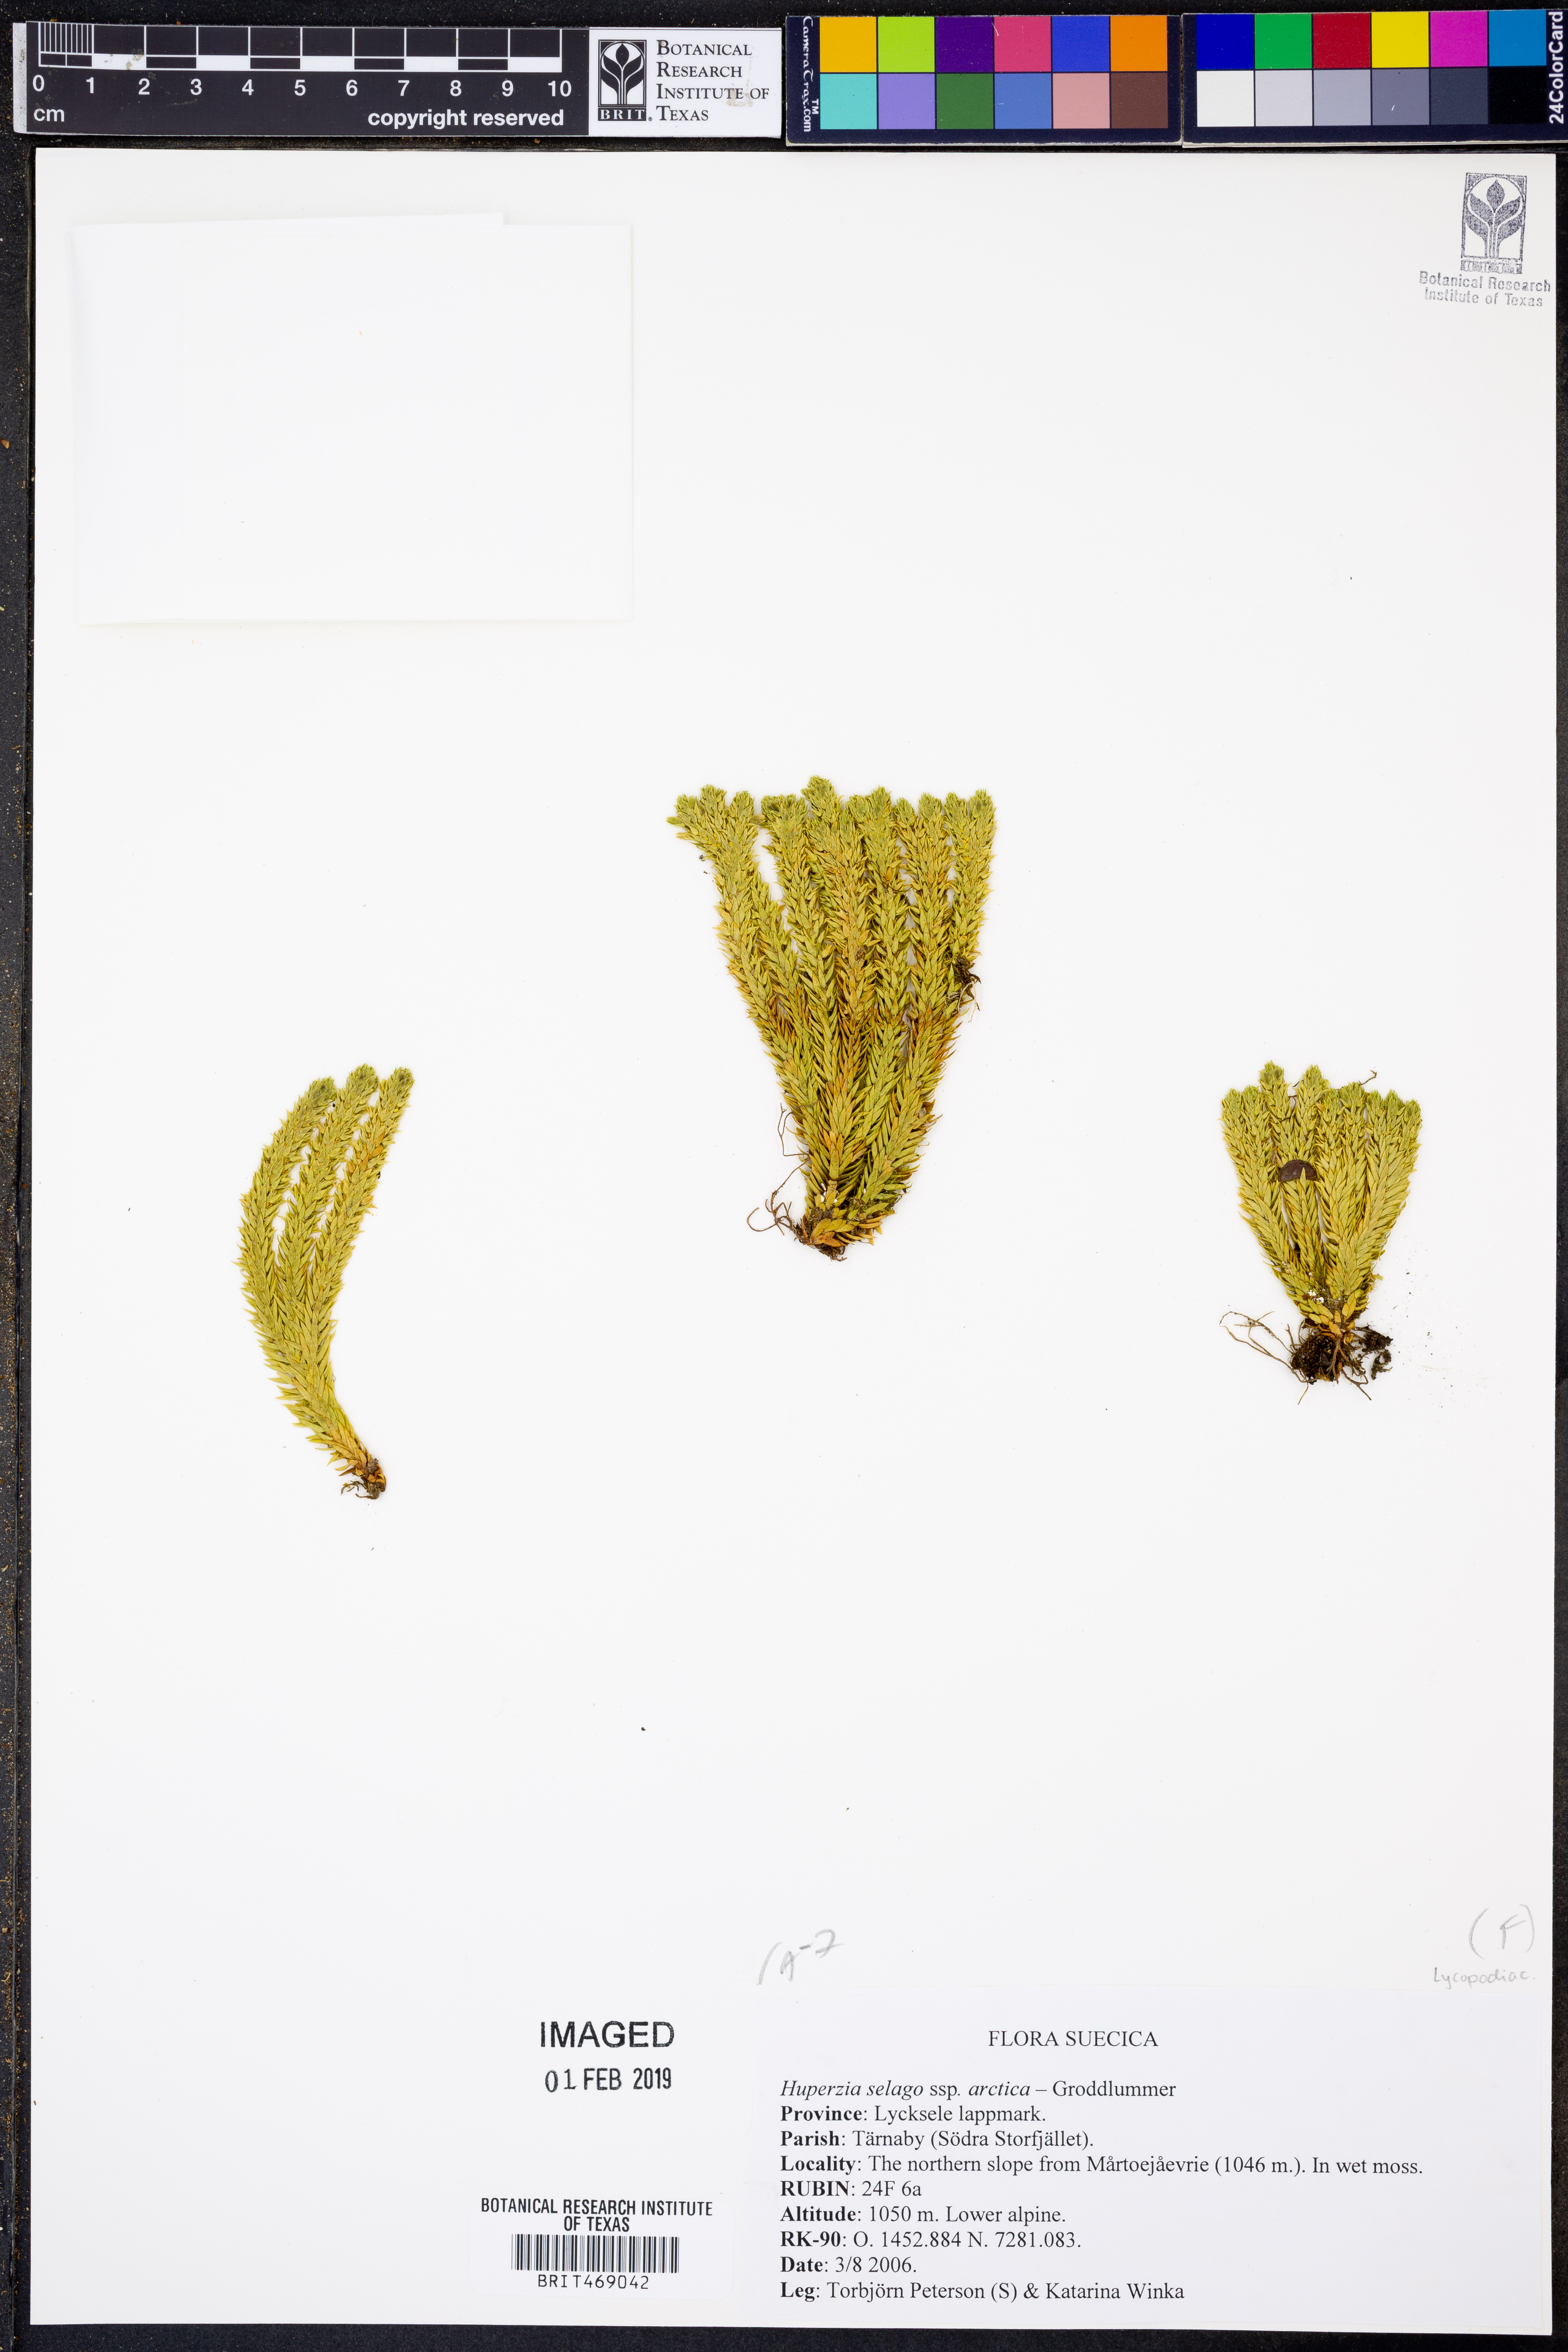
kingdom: Plantae
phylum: Tracheophyta
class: Lycopodiopsida
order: Lycopodiales
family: Lycopodiaceae
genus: Huperzia
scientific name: Huperzia selago
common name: Northern firmoss
